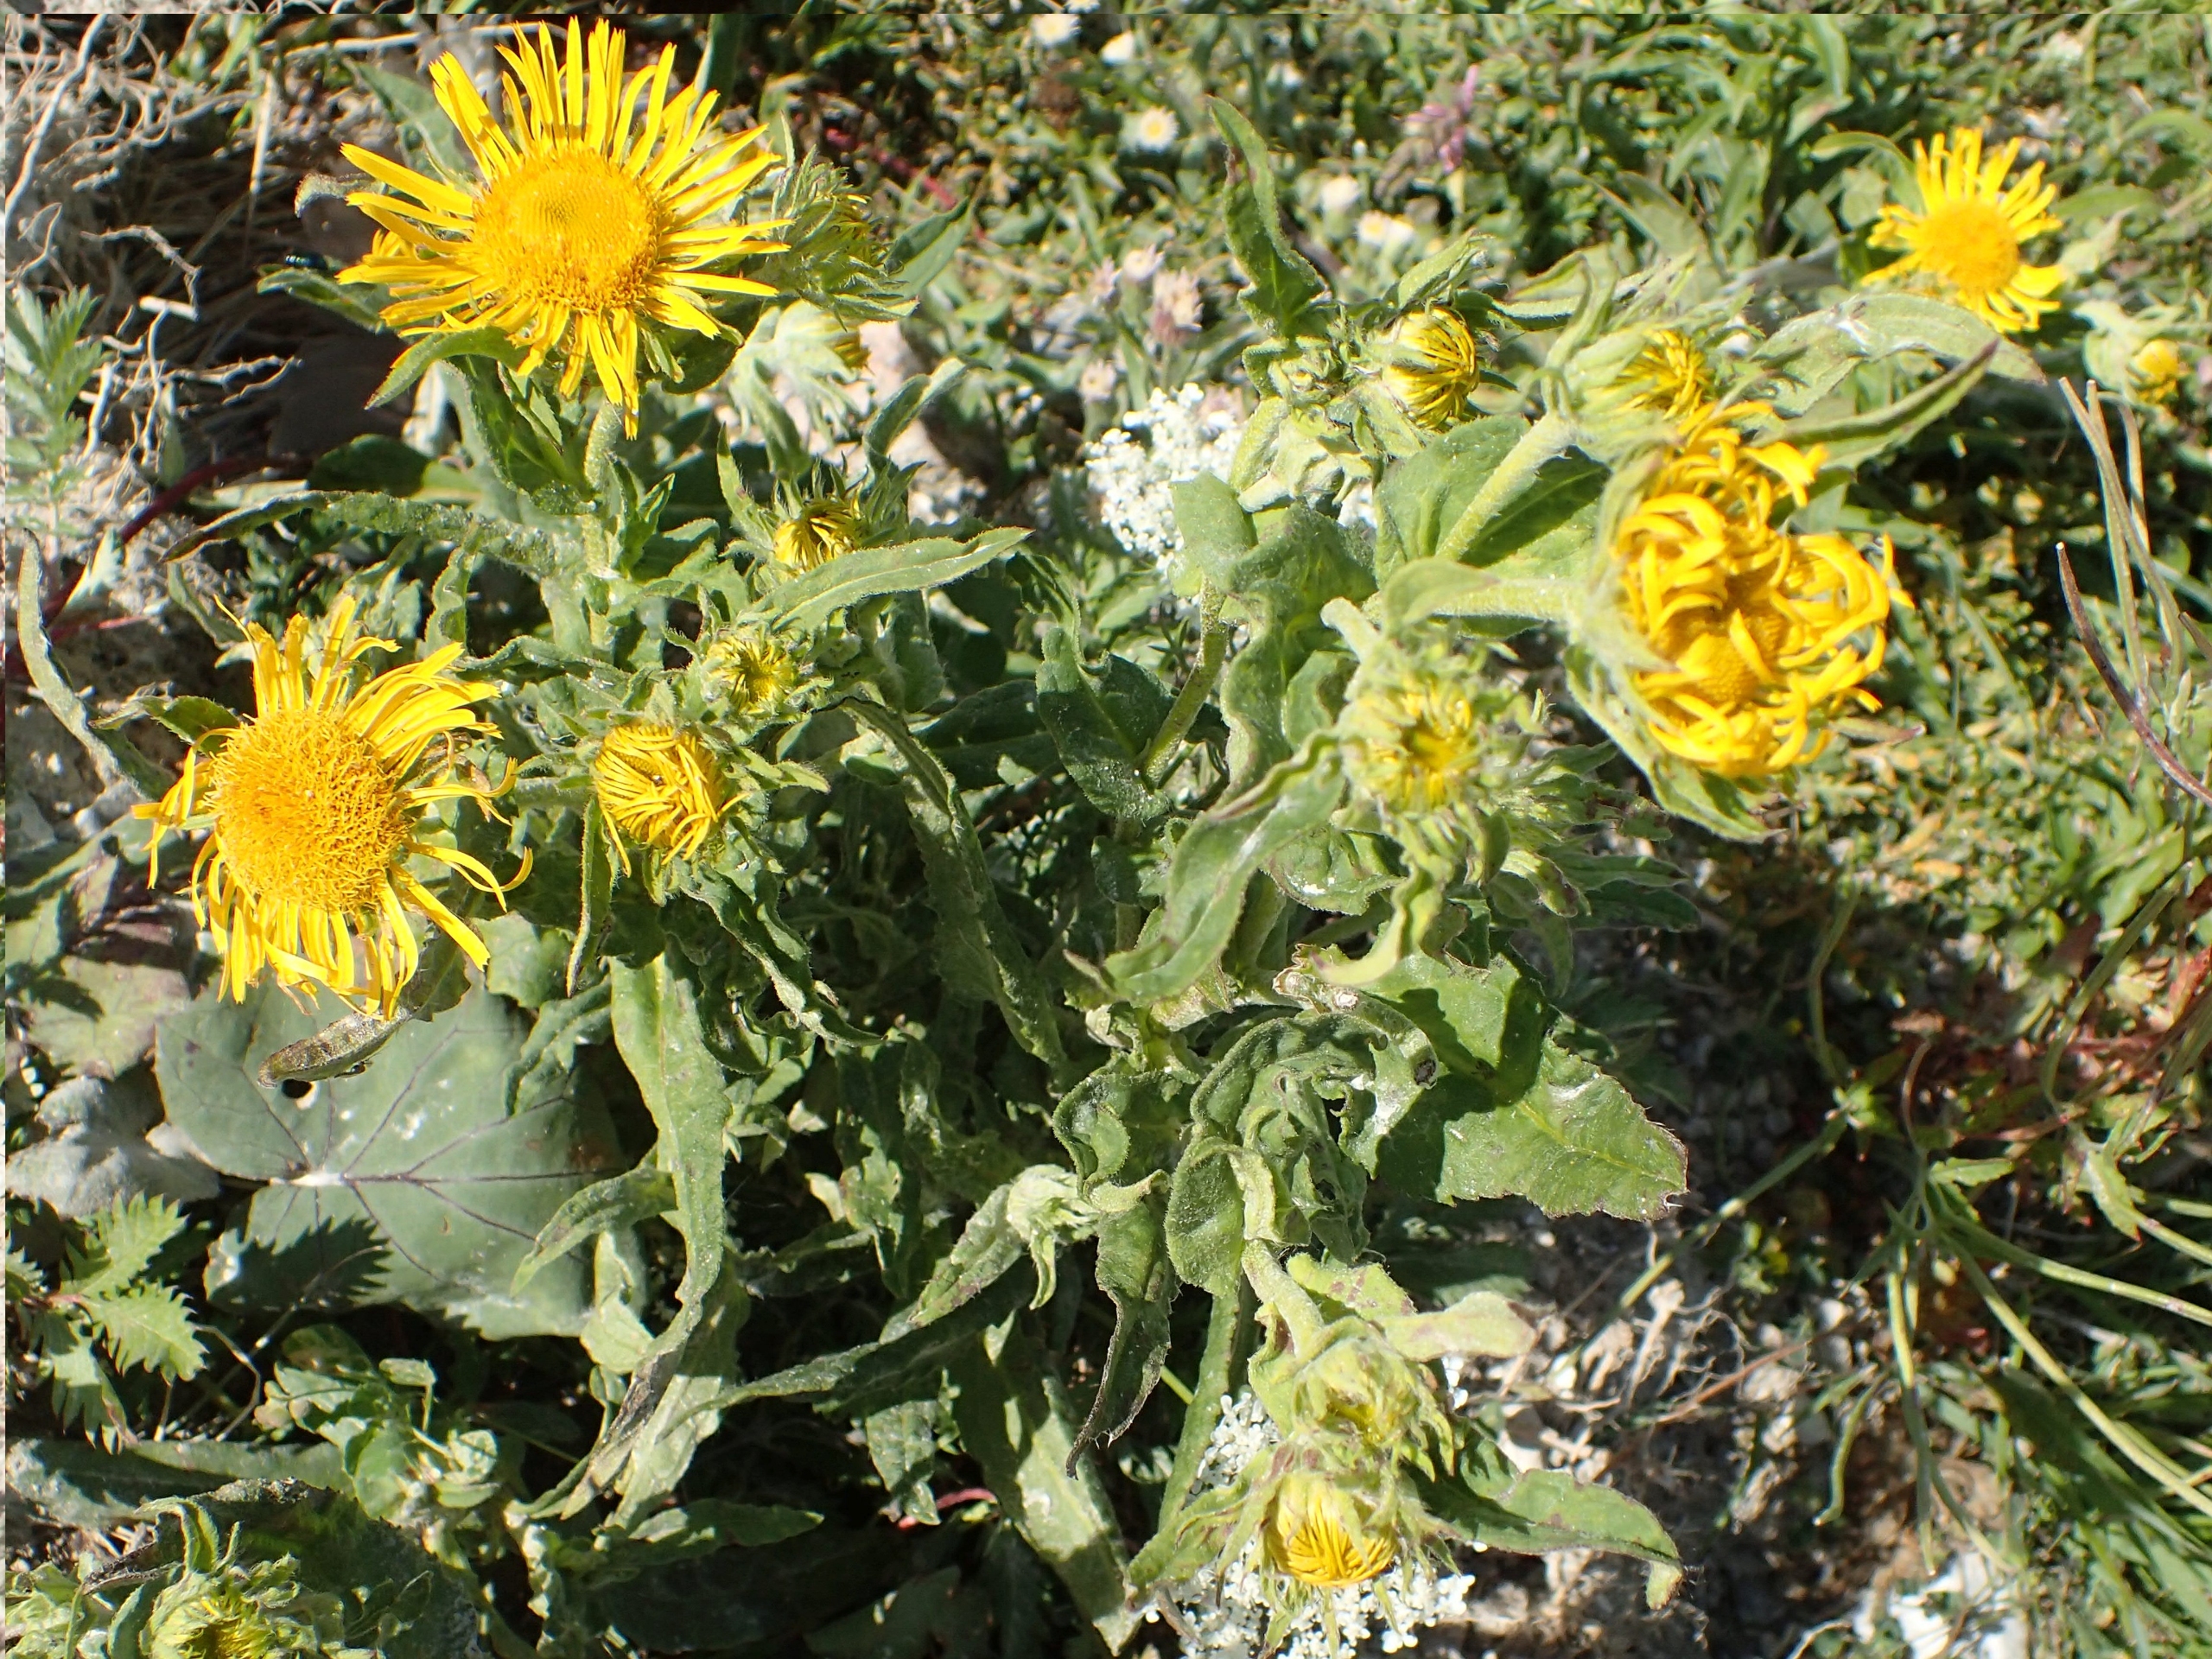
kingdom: Plantae
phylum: Tracheophyta
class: Magnoliopsida
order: Asterales
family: Asteraceae
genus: Pentanema
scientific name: Pentanema britannicum
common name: Soløje-alant
